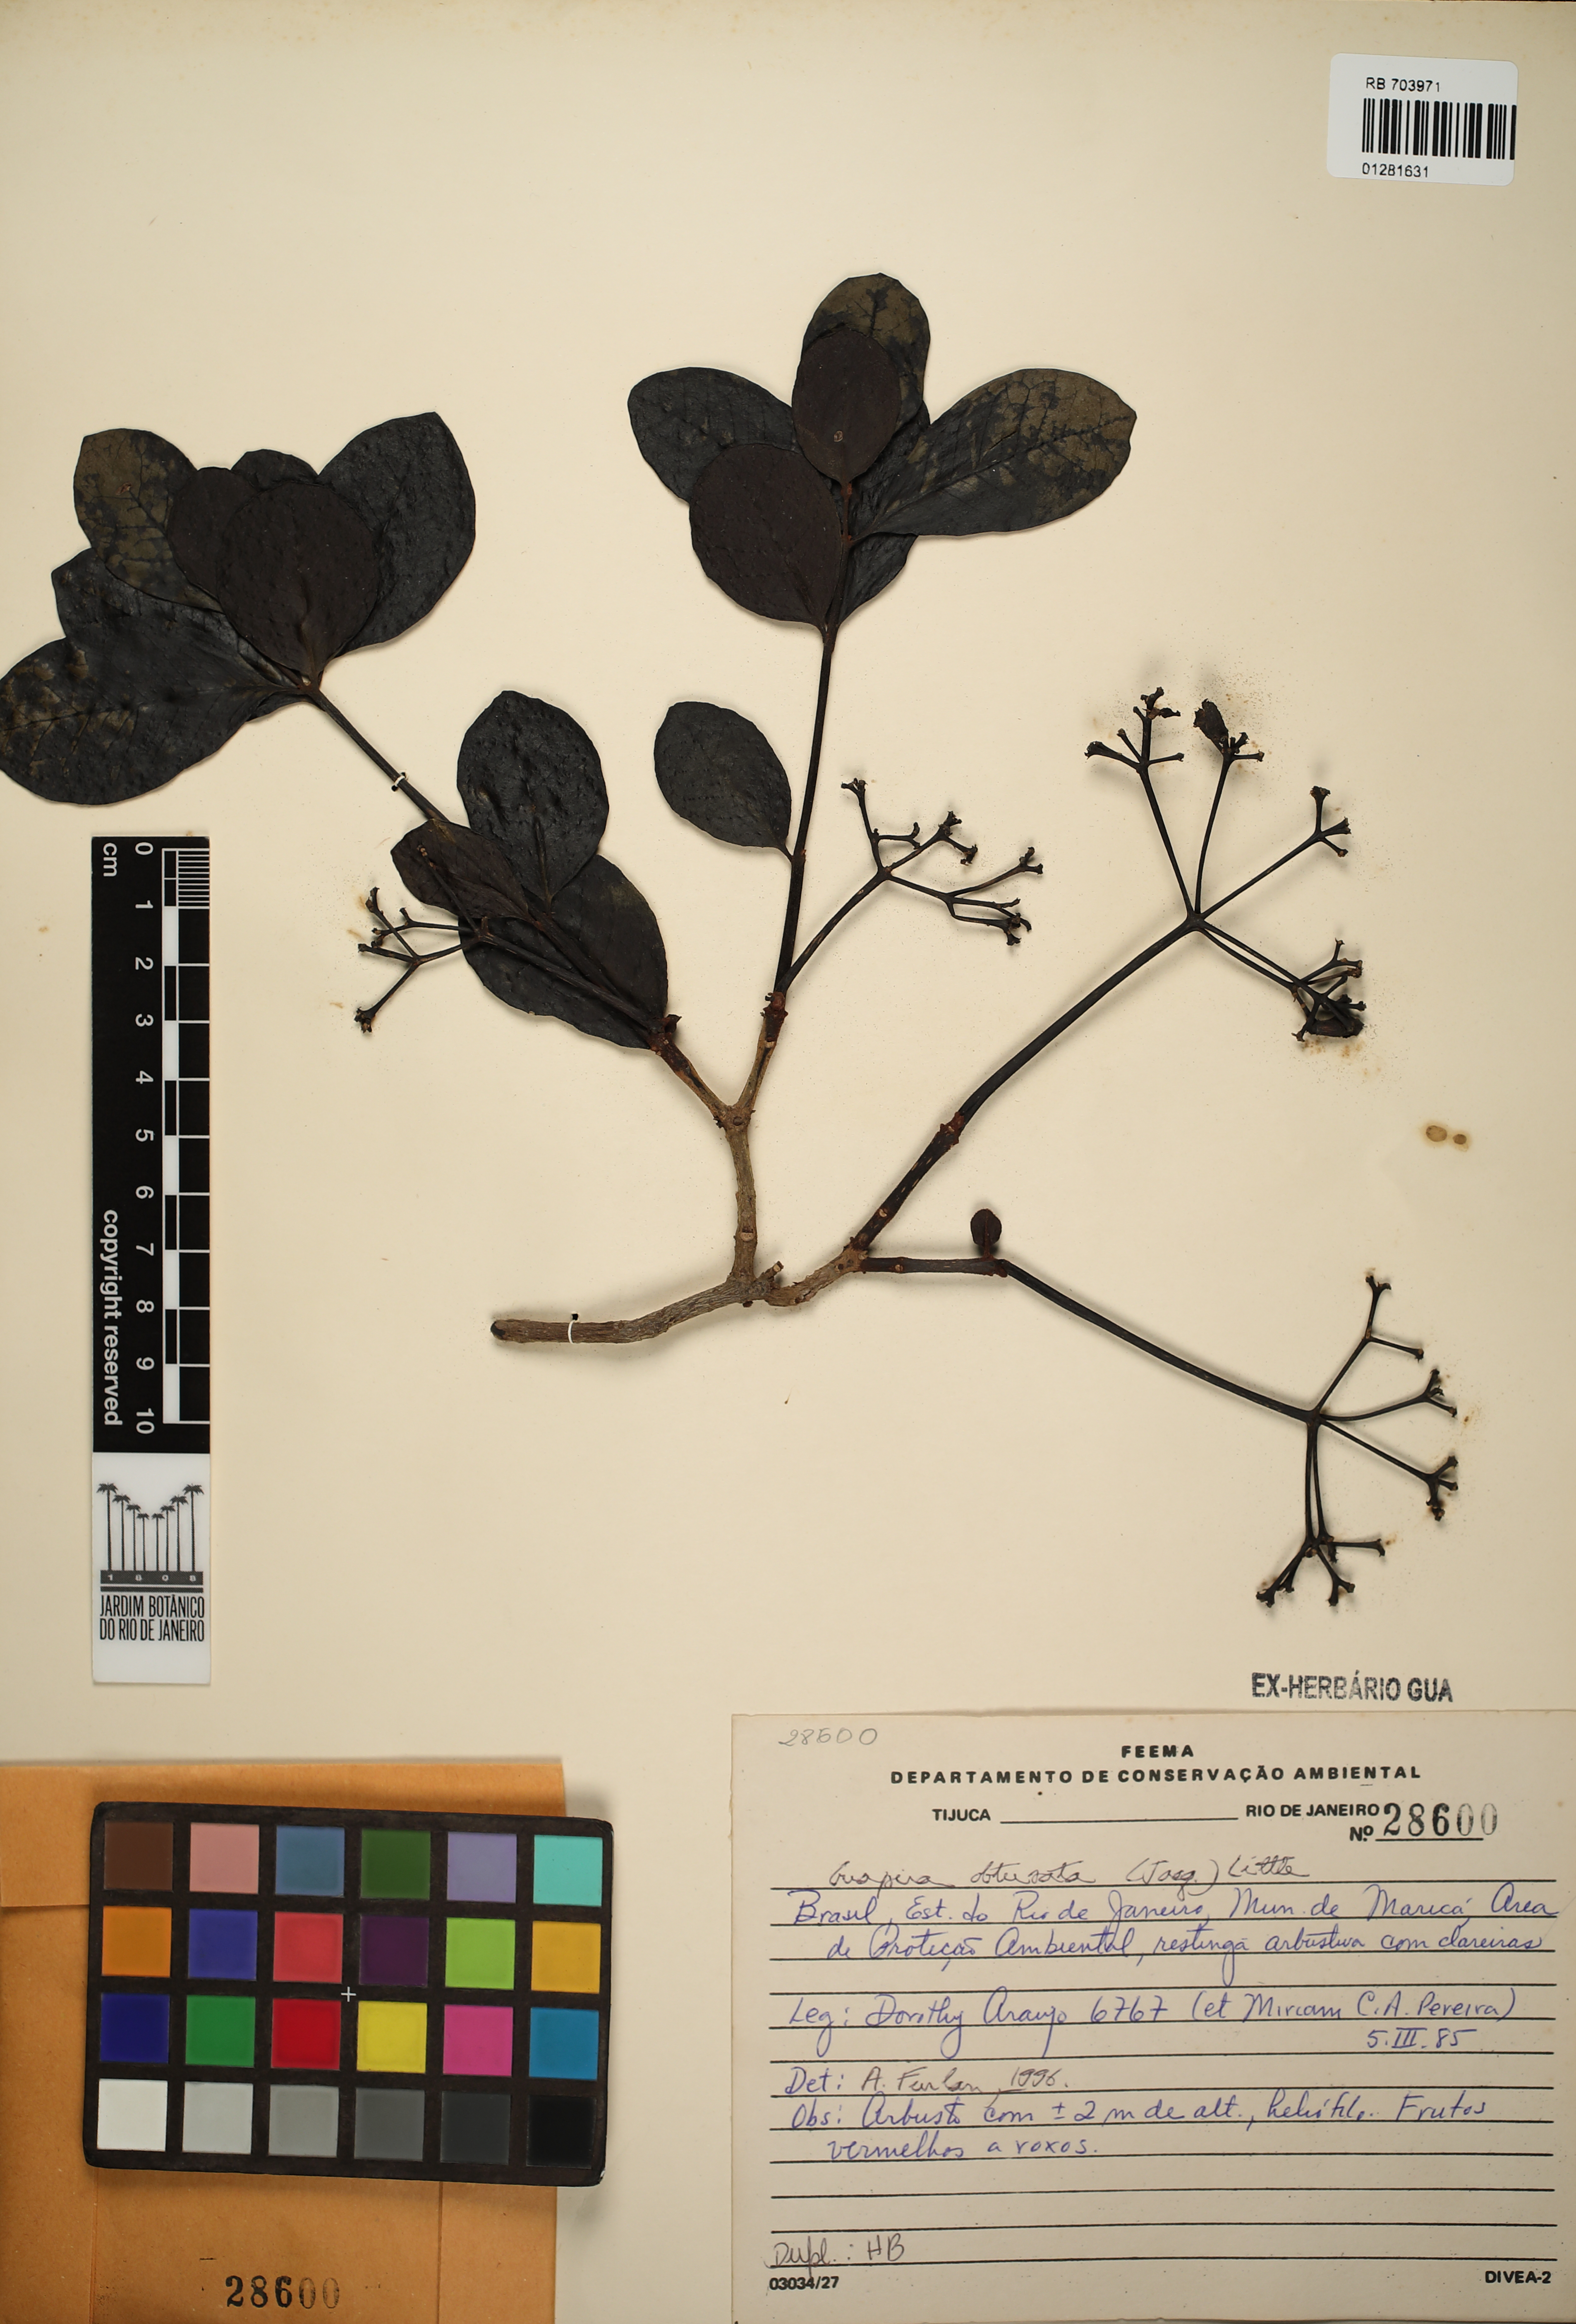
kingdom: Plantae
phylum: Tracheophyta
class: Magnoliopsida
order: Caryophyllales
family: Nyctaginaceae
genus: Guapira
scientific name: Guapira obtusata
